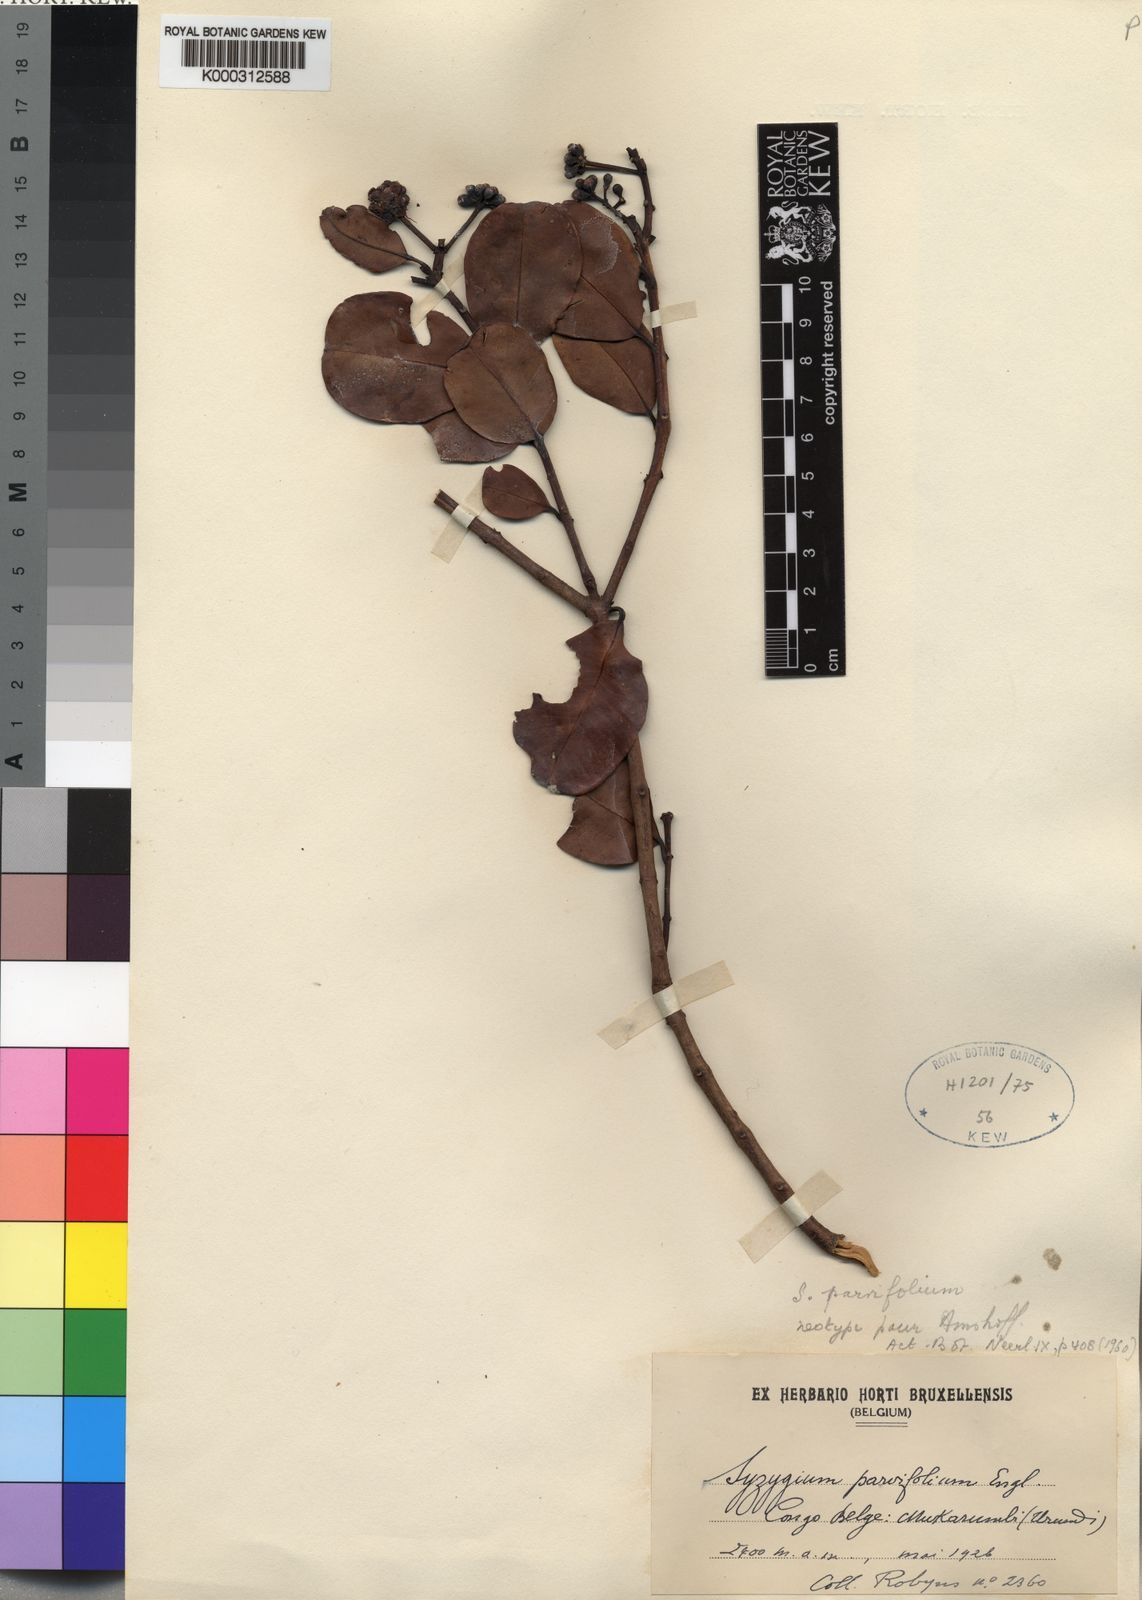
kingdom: Plantae
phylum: Tracheophyta
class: Magnoliopsida
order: Myrtales
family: Myrtaceae
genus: Syzygium
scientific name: Syzygium parvifolium
